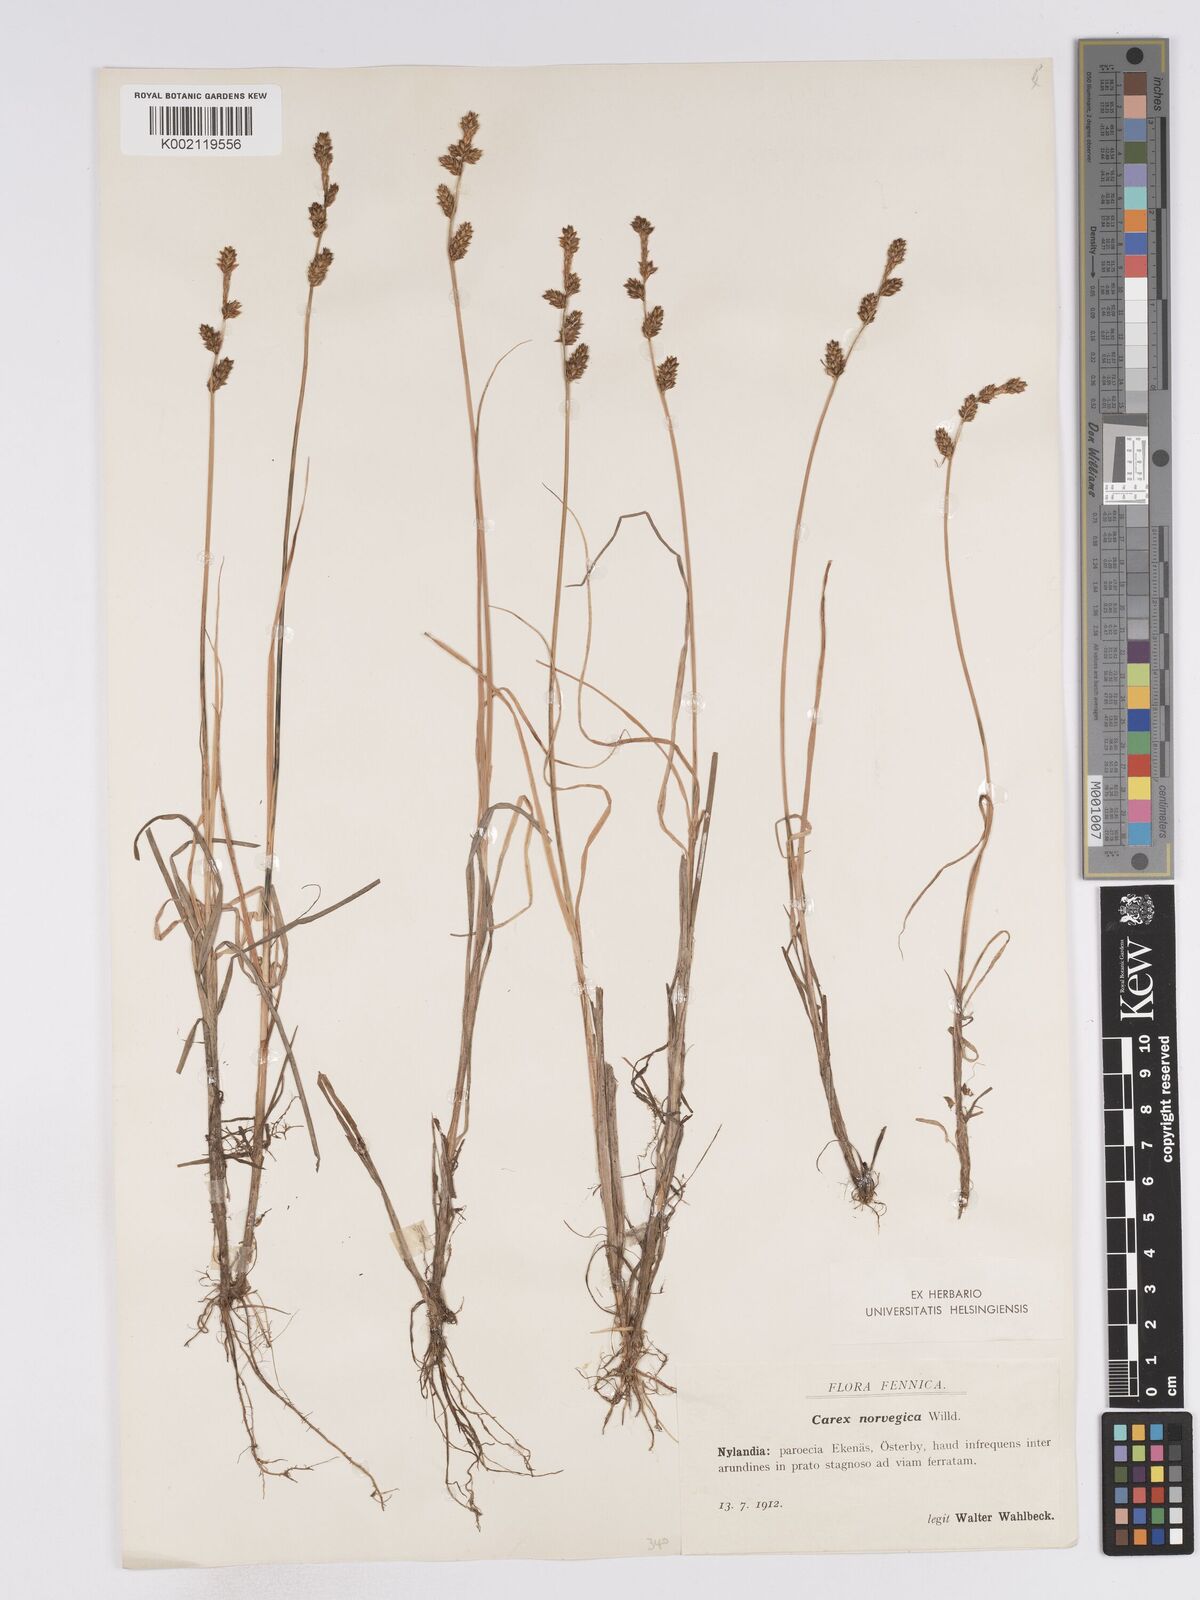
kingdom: Plantae
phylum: Tracheophyta
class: Liliopsida
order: Poales
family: Cyperaceae
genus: Carex
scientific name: Carex mackenziei
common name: Mackenzie's sedge
